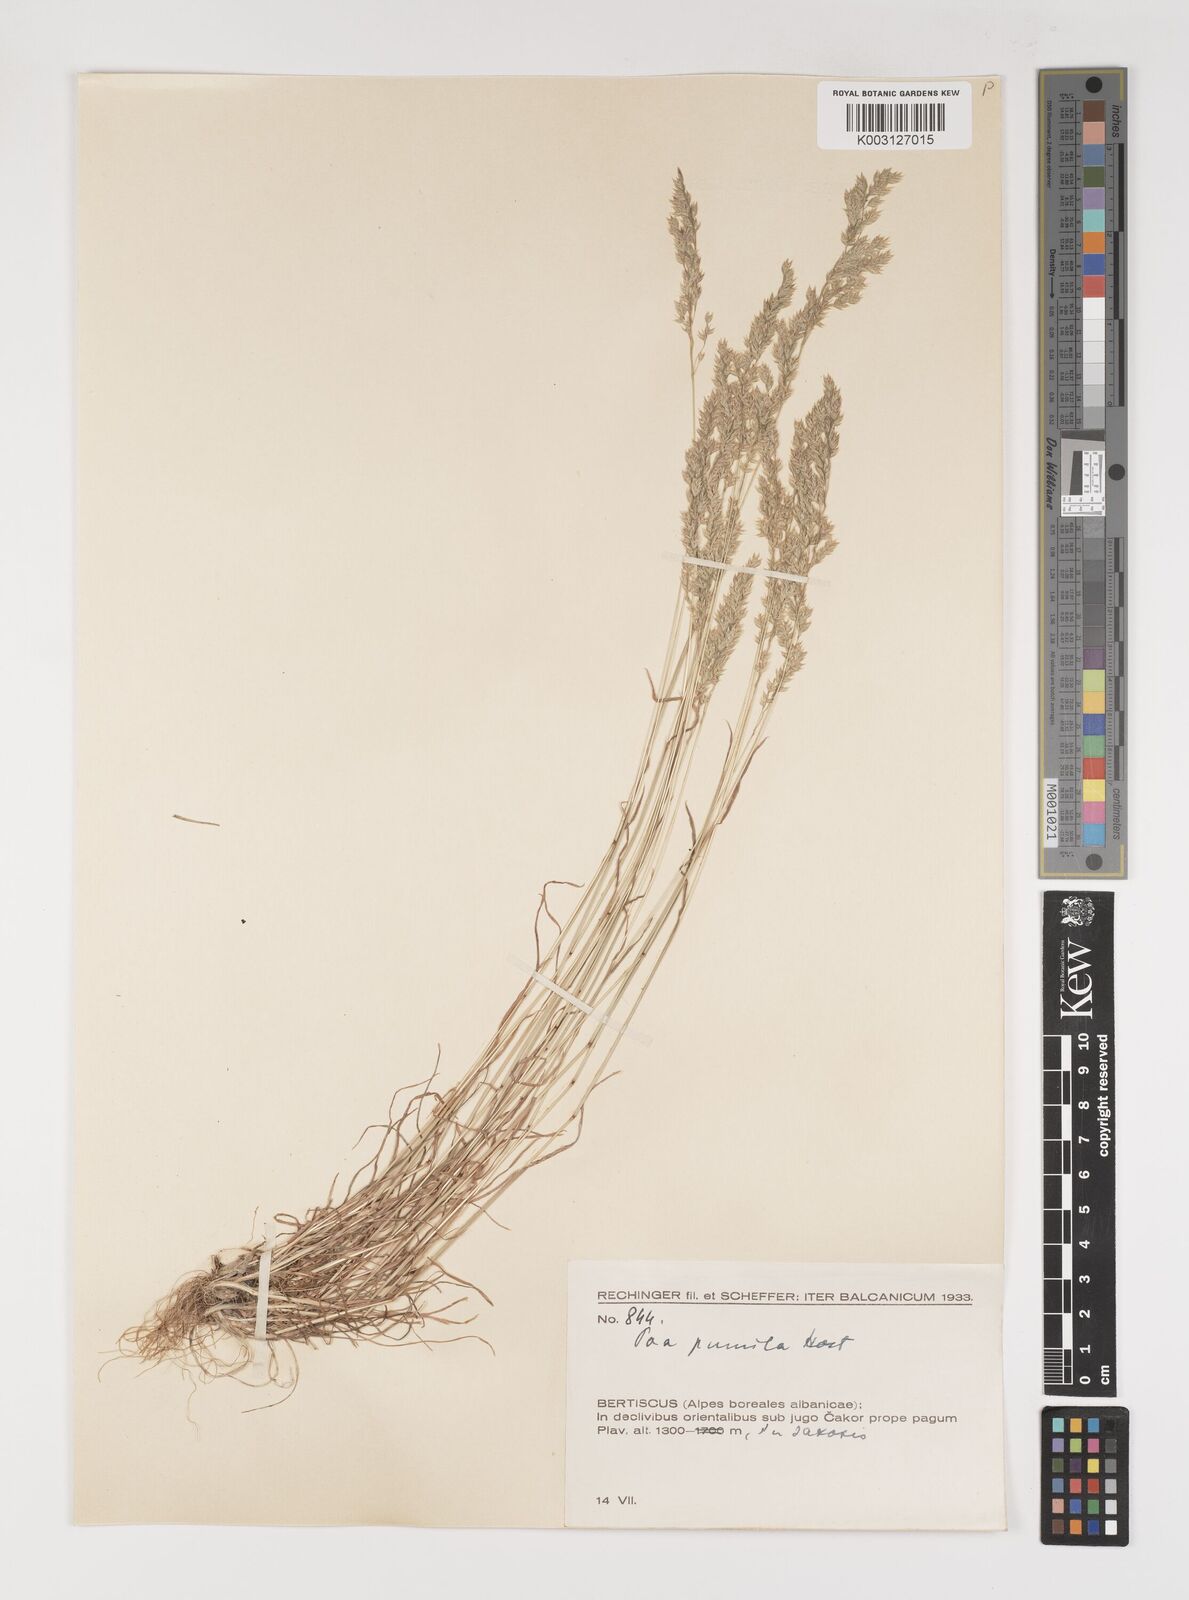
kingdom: Plantae
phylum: Tracheophyta
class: Liliopsida
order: Poales
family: Poaceae
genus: Poa
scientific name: Poa pumila
